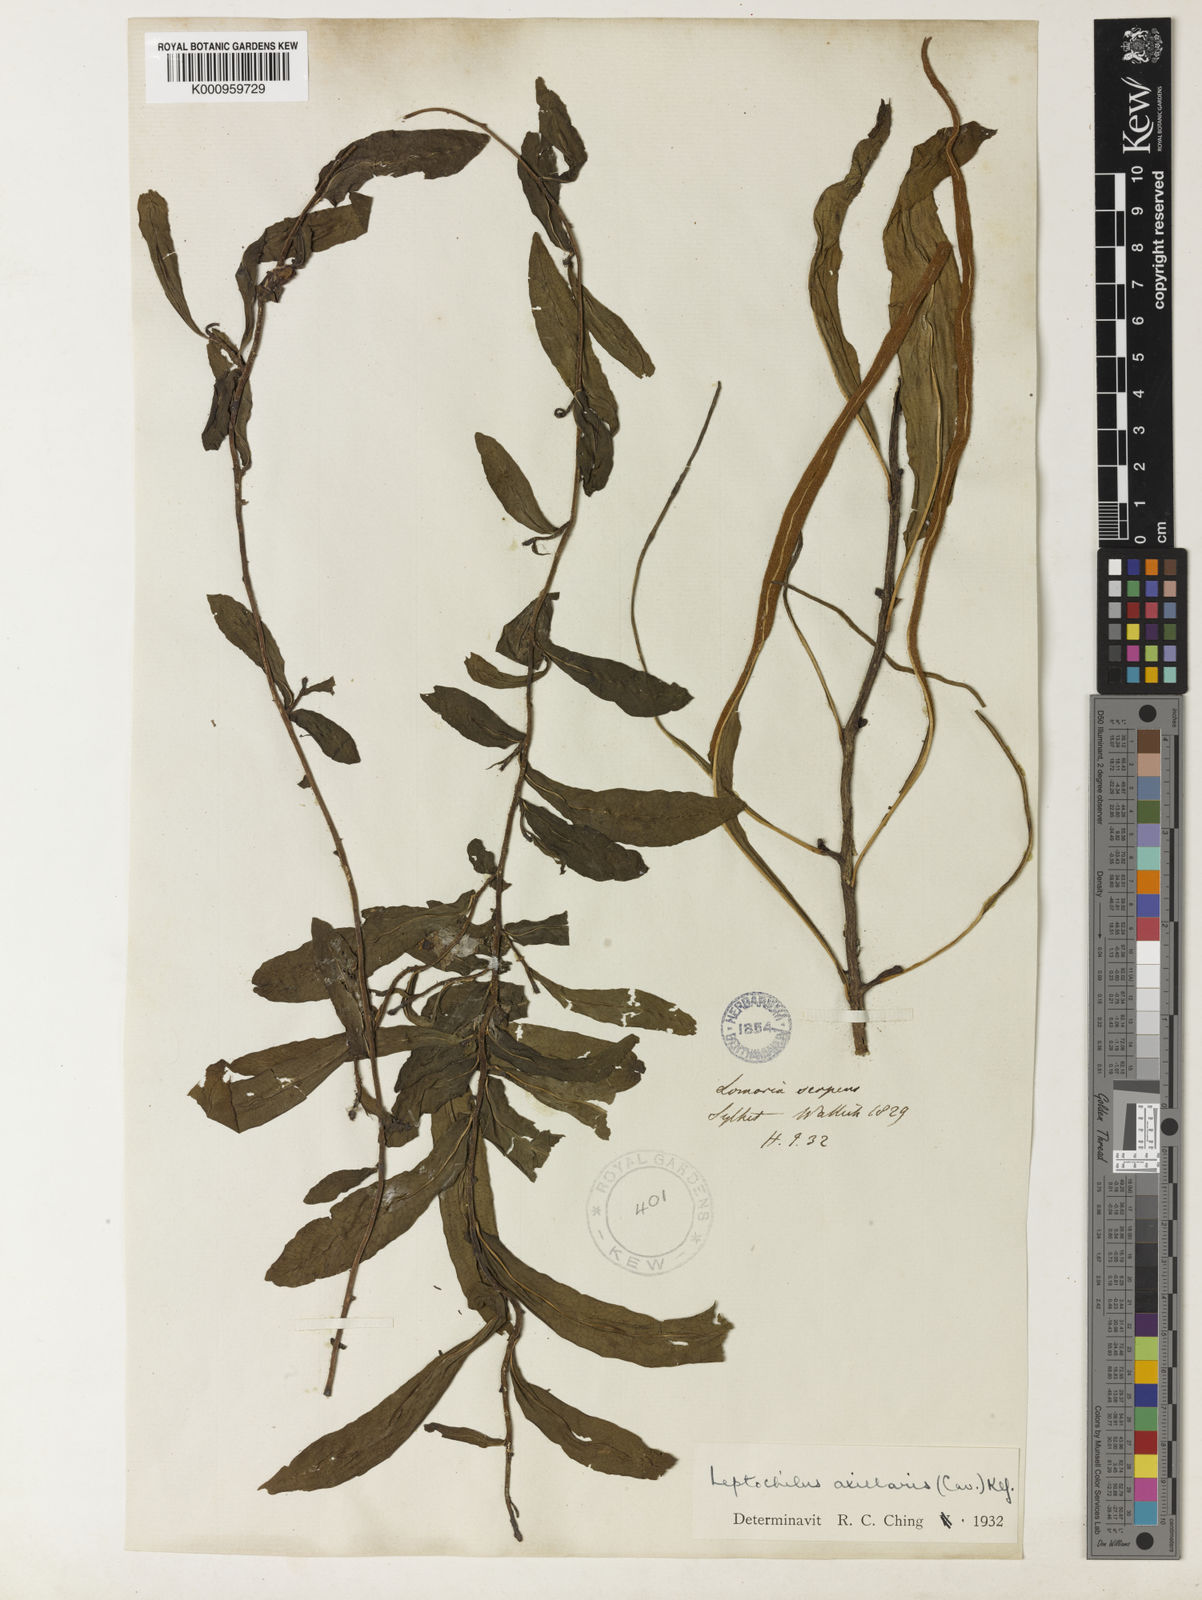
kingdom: Plantae
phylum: Tracheophyta
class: Polypodiopsida
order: Polypodiales
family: Polypodiaceae
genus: Leptochilus
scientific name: Leptochilus axillaris
